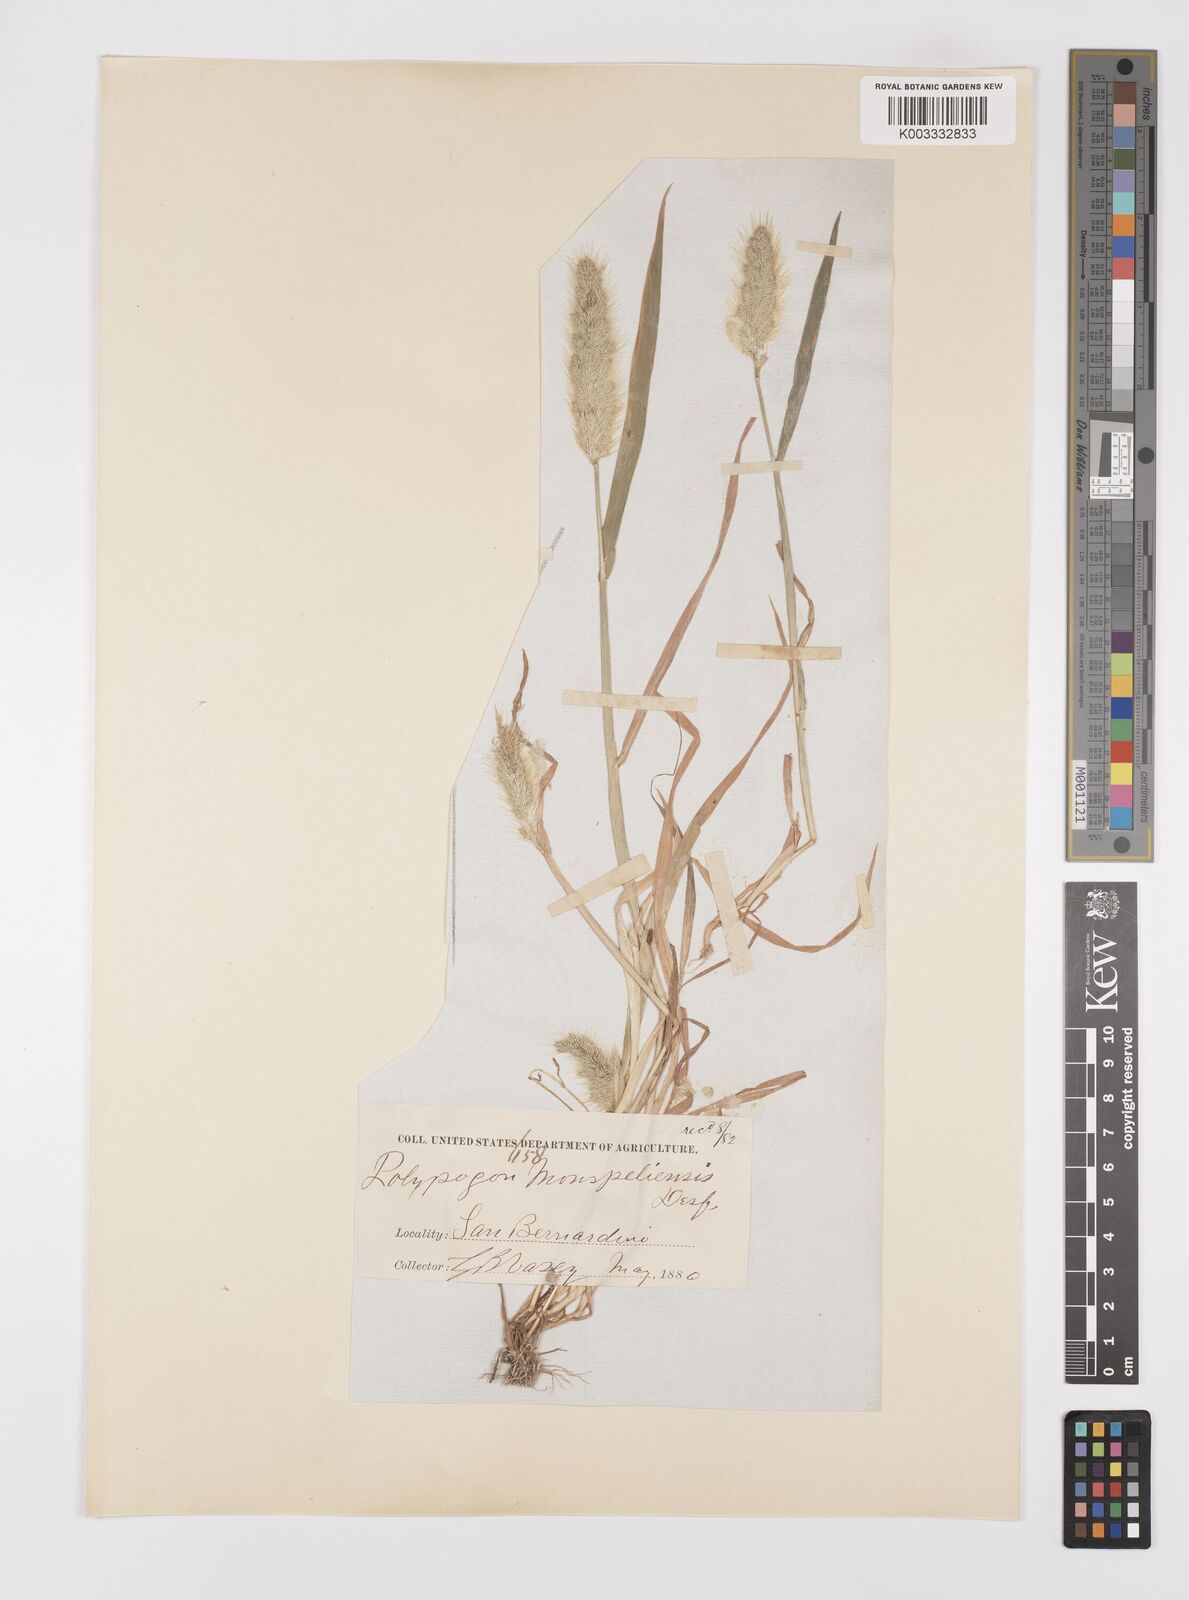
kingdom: Plantae
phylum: Tracheophyta
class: Liliopsida
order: Poales
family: Poaceae
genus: Polypogon
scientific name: Polypogon monspeliensis
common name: Annual rabbitsfoot grass
